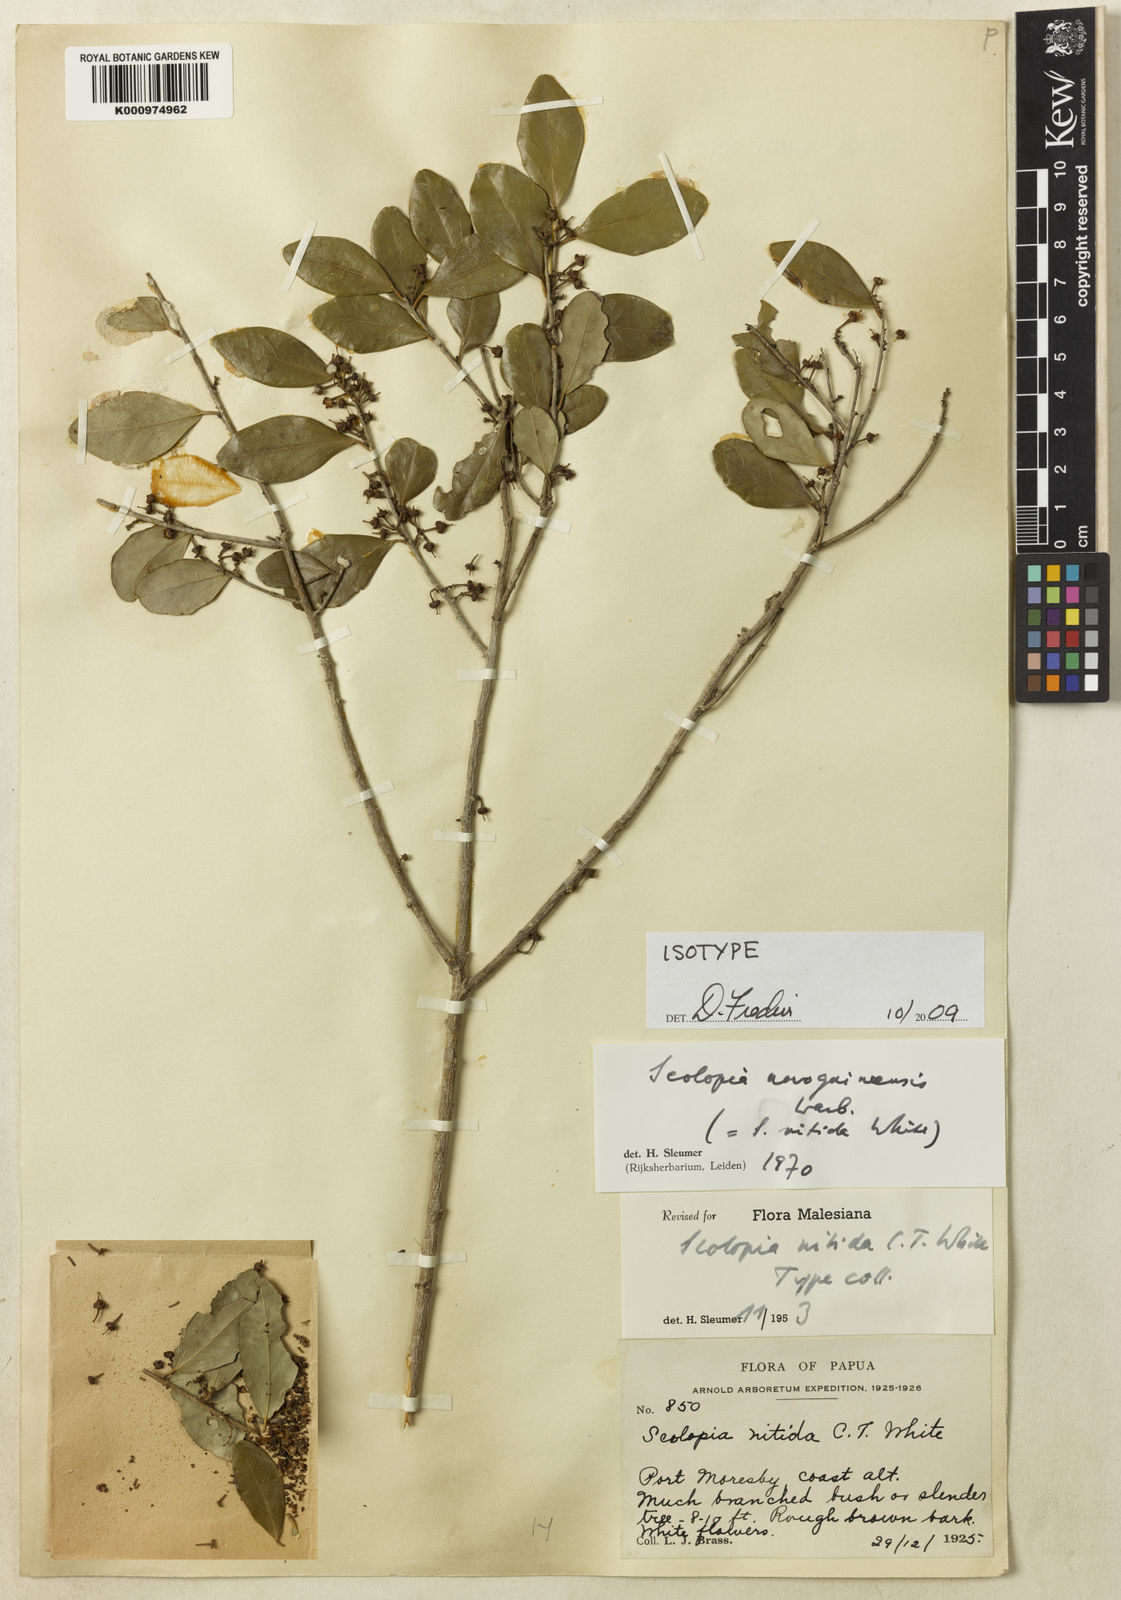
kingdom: Plantae
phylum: Tracheophyta
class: Magnoliopsida
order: Malpighiales
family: Salicaceae
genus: Scolopia
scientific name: Scolopia novoguineensis
